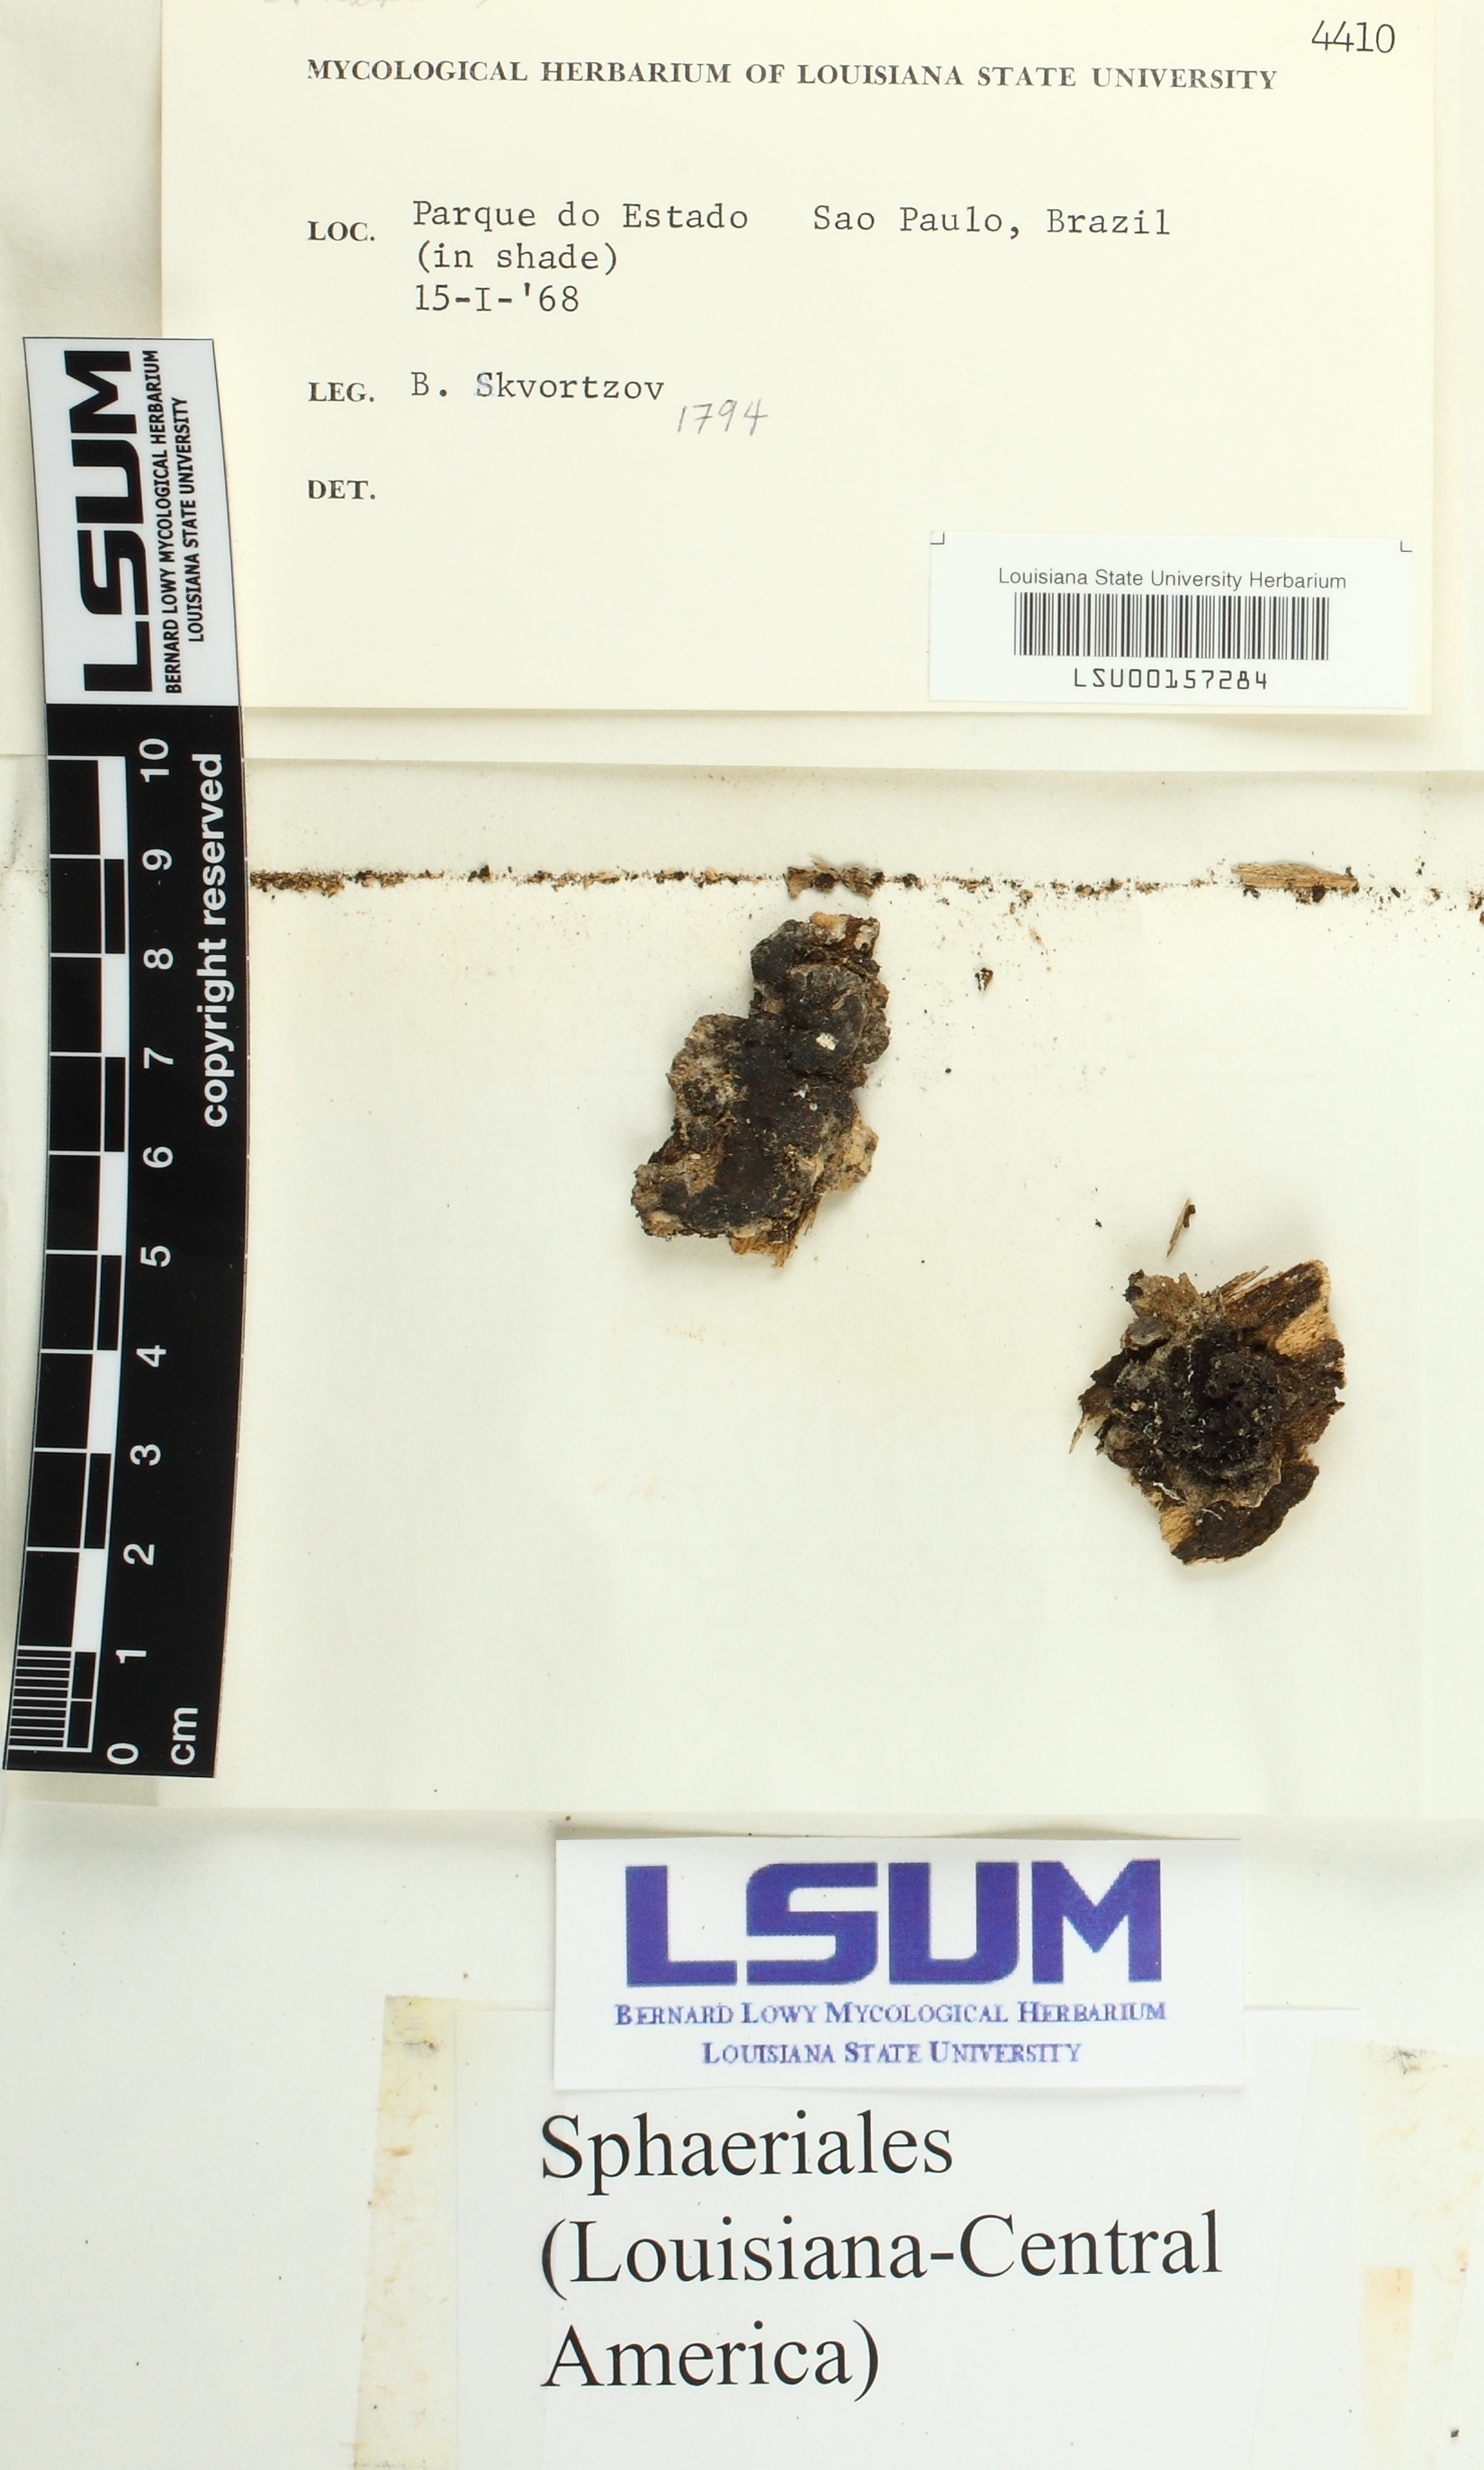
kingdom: Fungi
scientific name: Fungi
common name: Fungi
